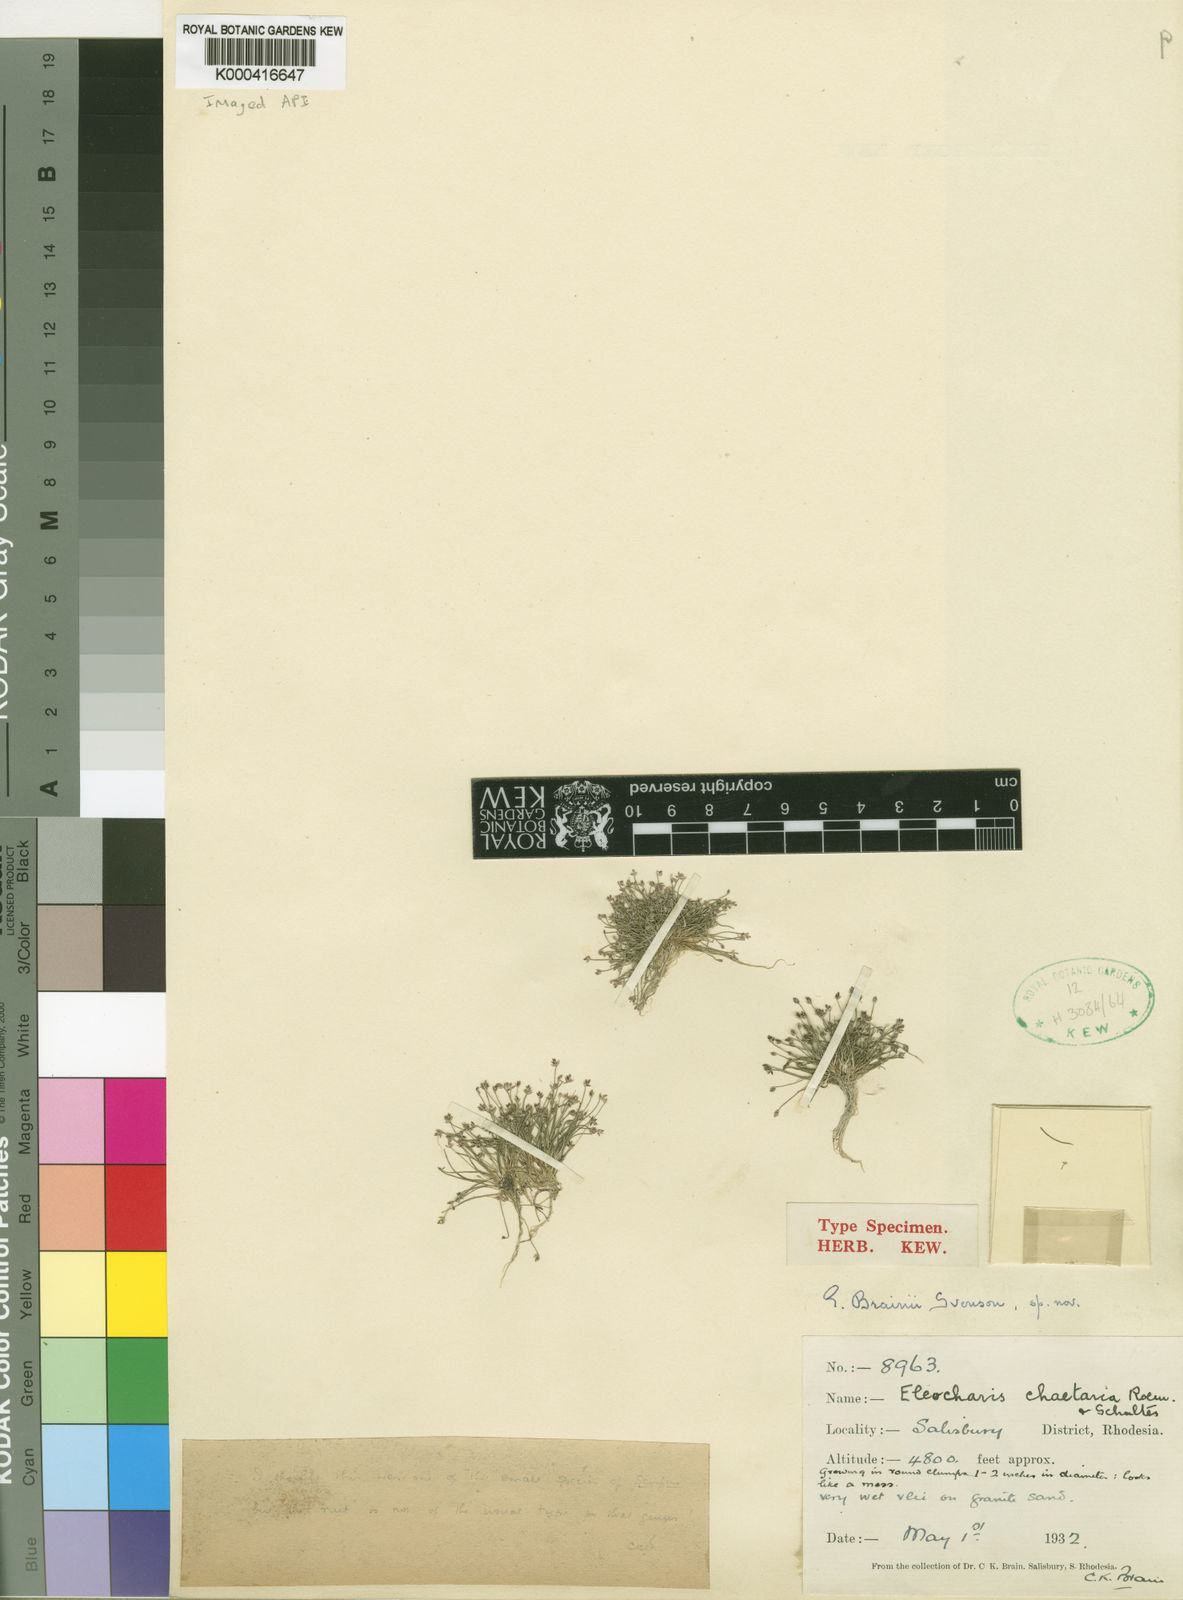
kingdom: Plantae
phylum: Tracheophyta
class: Liliopsida
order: Poales
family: Cyperaceae
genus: Eleocharis
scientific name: Eleocharis brainii
